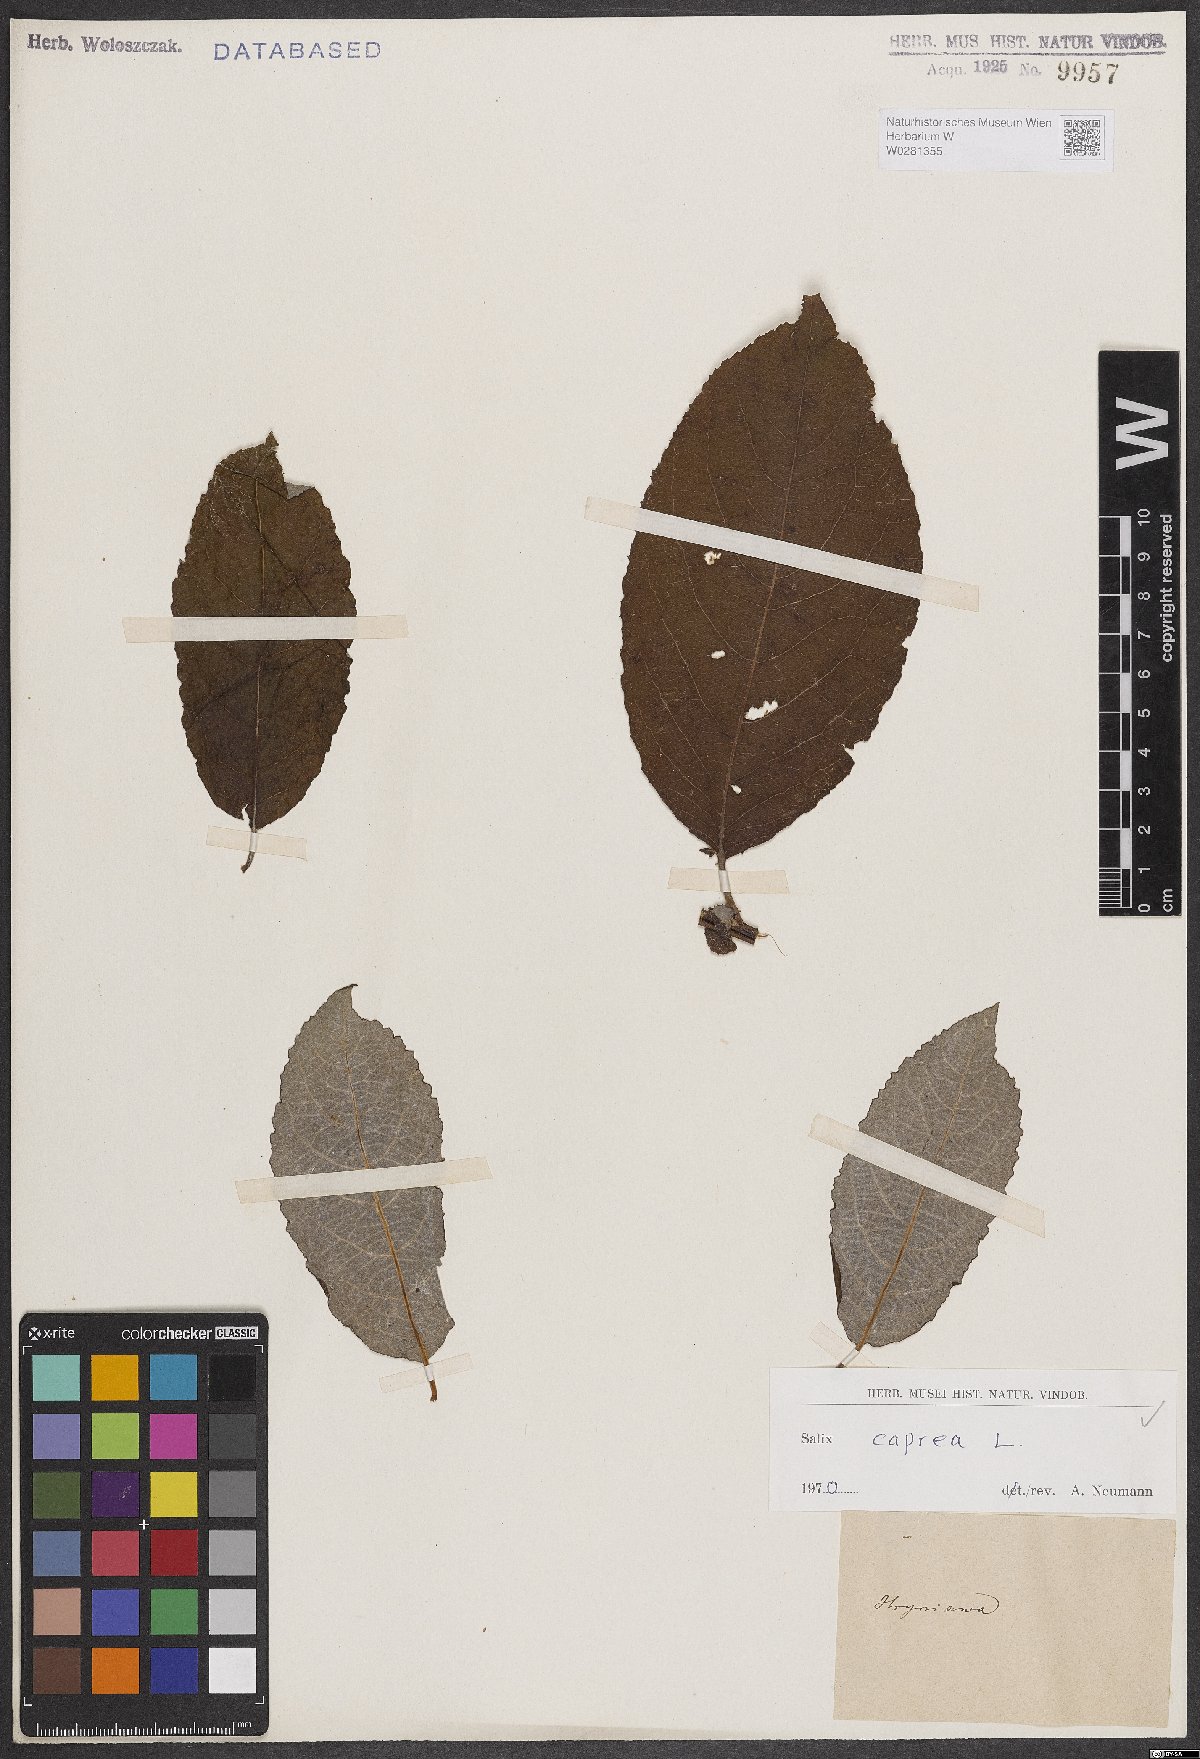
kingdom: Plantae
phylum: Tracheophyta
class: Magnoliopsida
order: Malpighiales
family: Salicaceae
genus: Salix
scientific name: Salix caprea
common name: Goat willow
